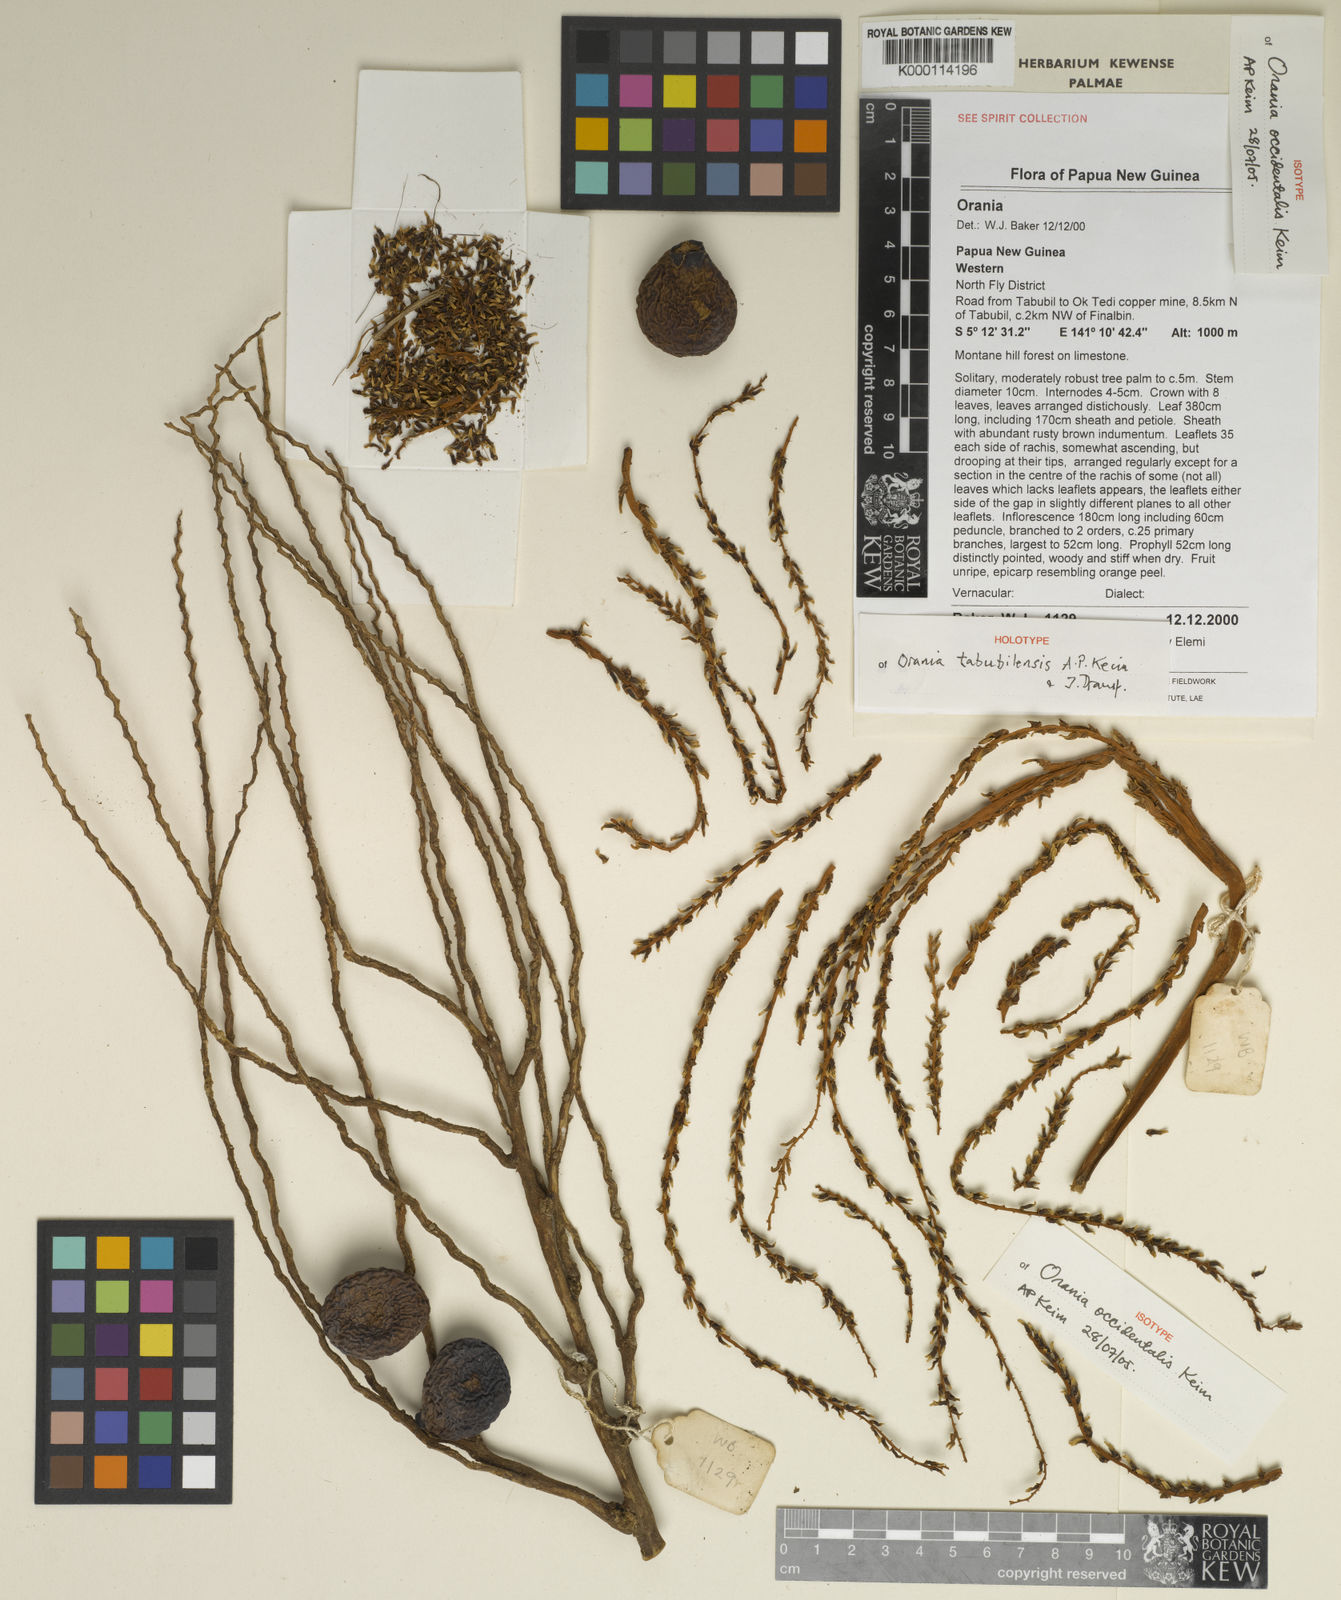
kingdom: Plantae
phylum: Tracheophyta
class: Liliopsida
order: Arecales
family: Arecaceae
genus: Orania
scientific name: Orania tabubilensis
